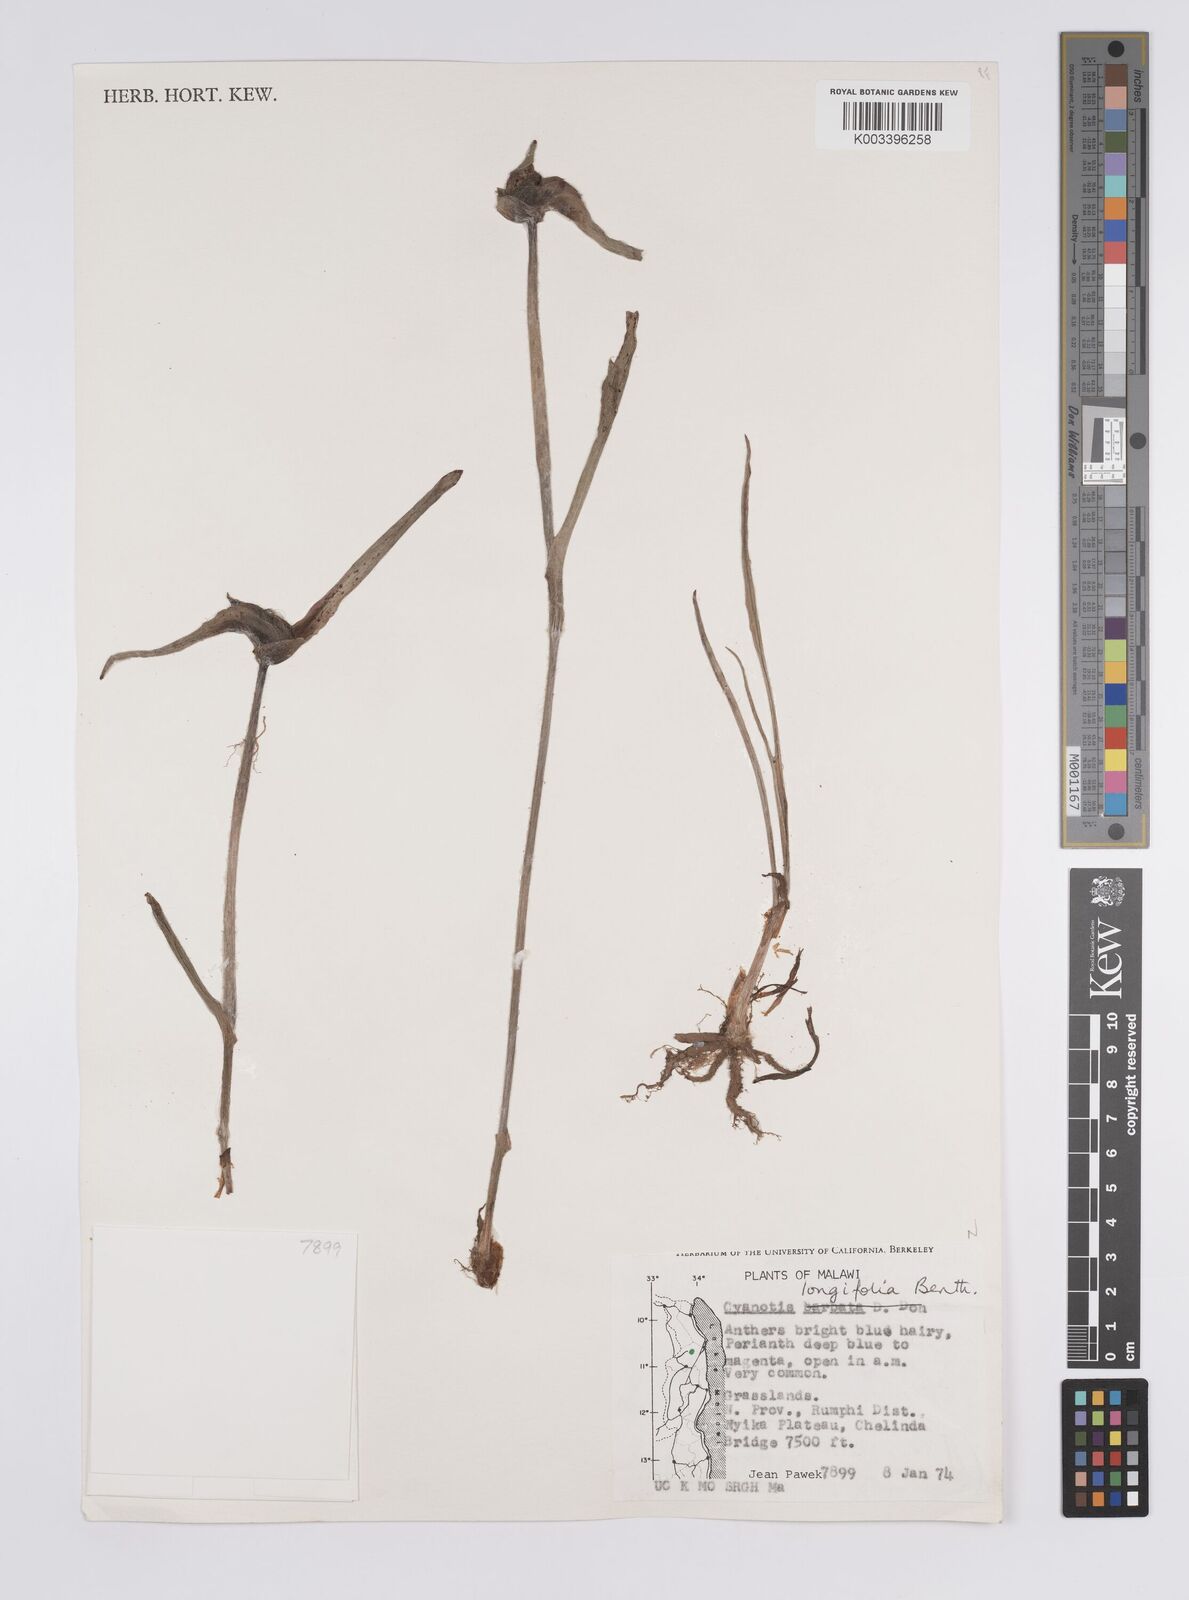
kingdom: Plantae
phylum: Tracheophyta
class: Liliopsida
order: Commelinales
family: Commelinaceae
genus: Cyanotis
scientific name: Cyanotis longifolia
